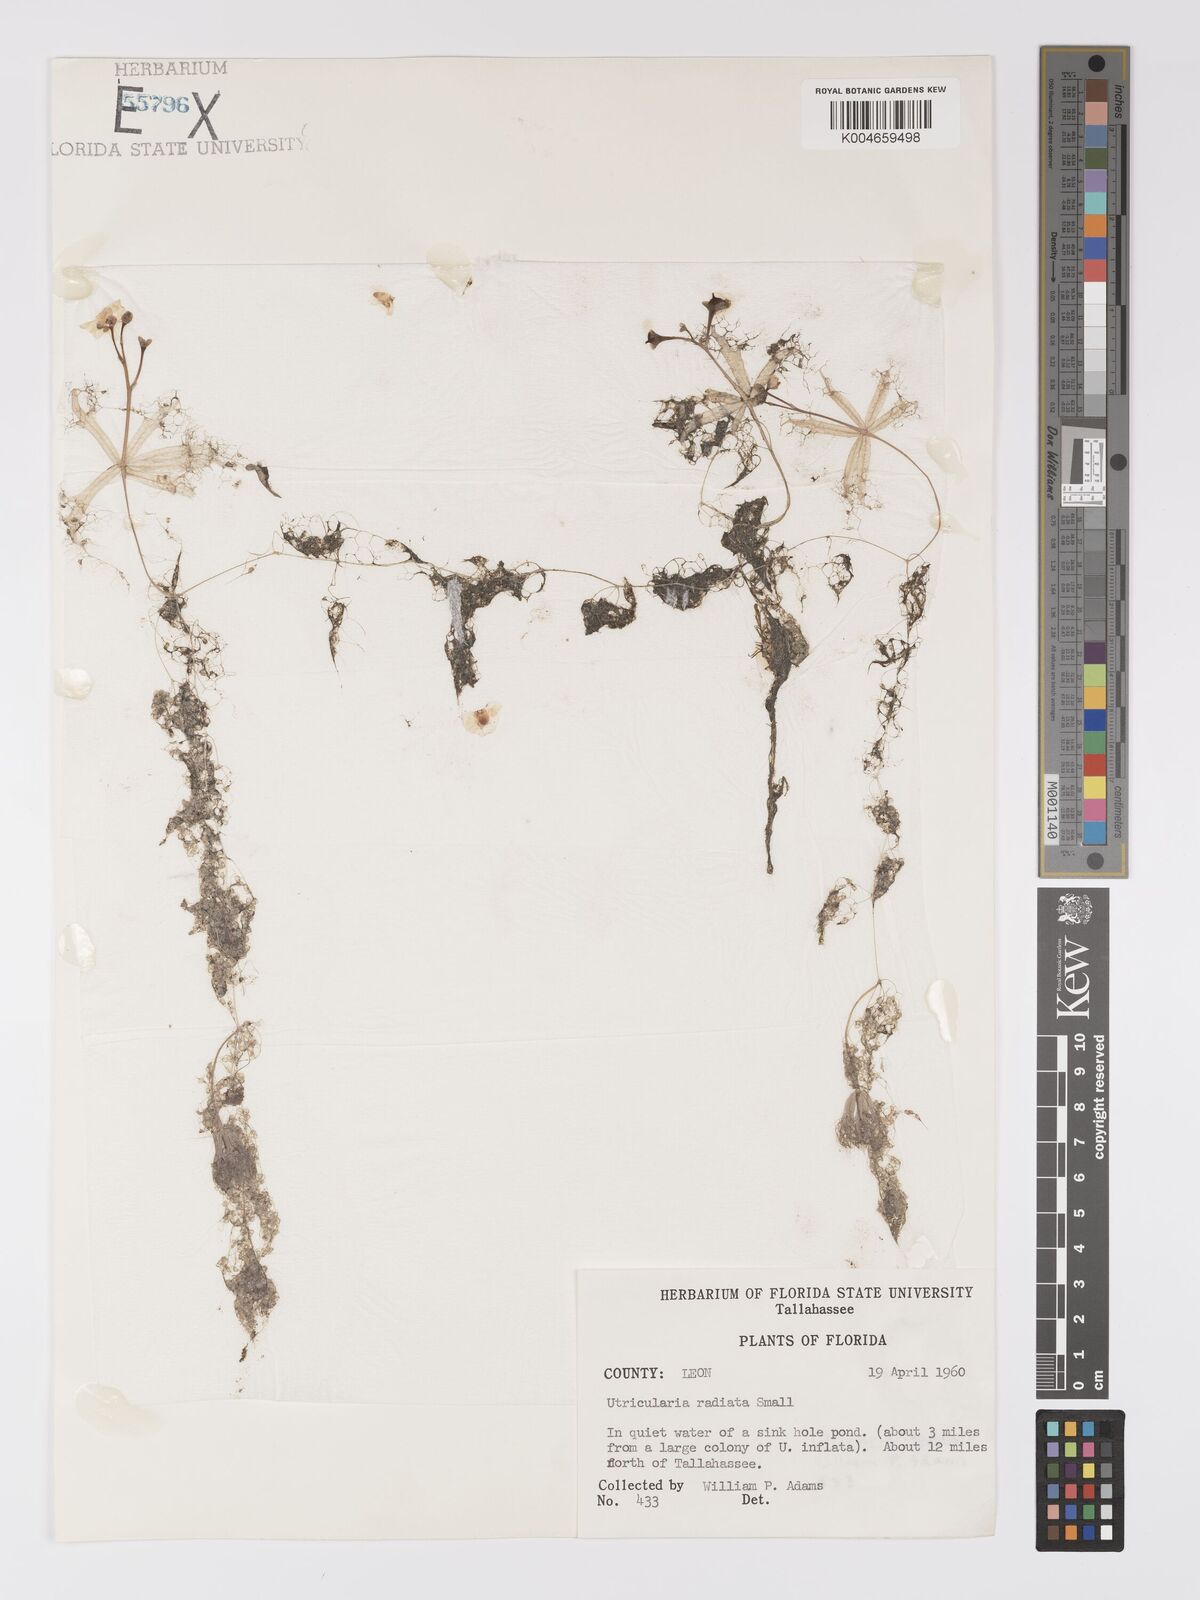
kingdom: Plantae
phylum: Tracheophyta
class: Magnoliopsida
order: Lamiales
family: Lentibulariaceae
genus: Utricularia
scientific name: Utricularia radiata
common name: Floating bladderwort
